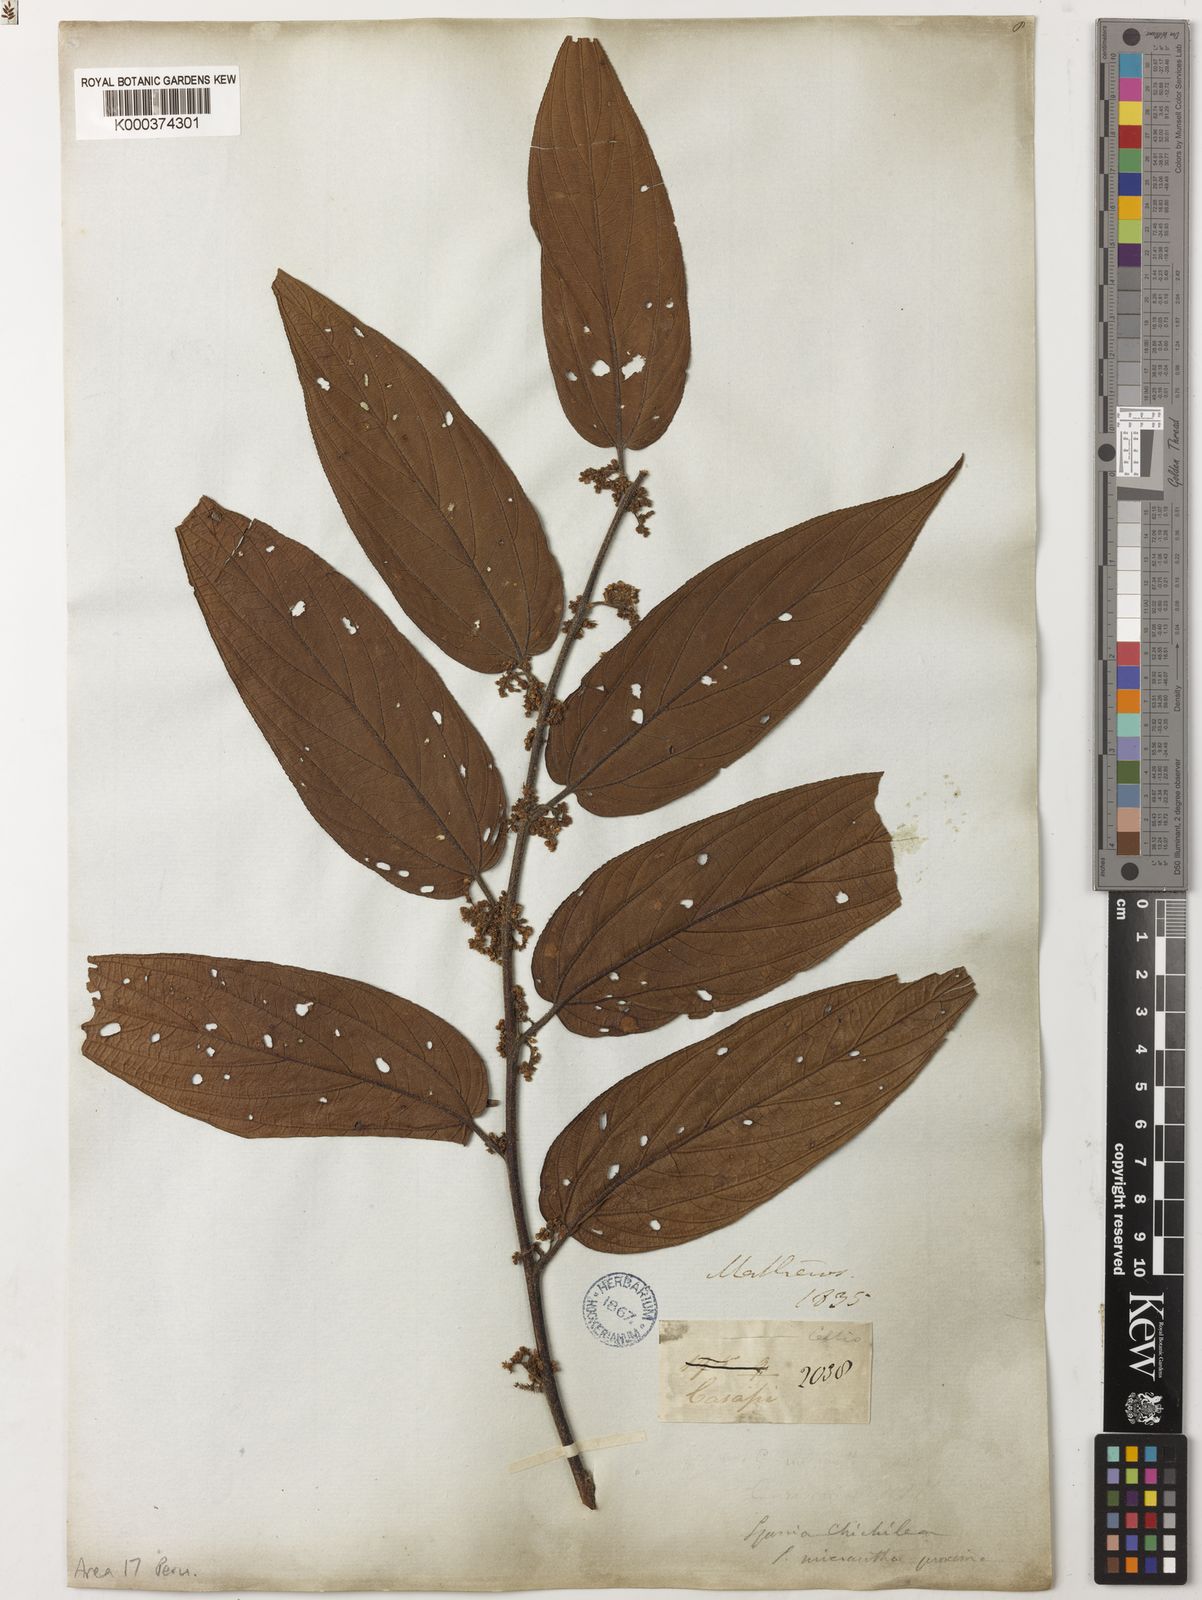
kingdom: Plantae
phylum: Tracheophyta
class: Magnoliopsida
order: Rosales
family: Cannabaceae
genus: Trema
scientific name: Trema micranthum
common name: Jamaican nettletree
